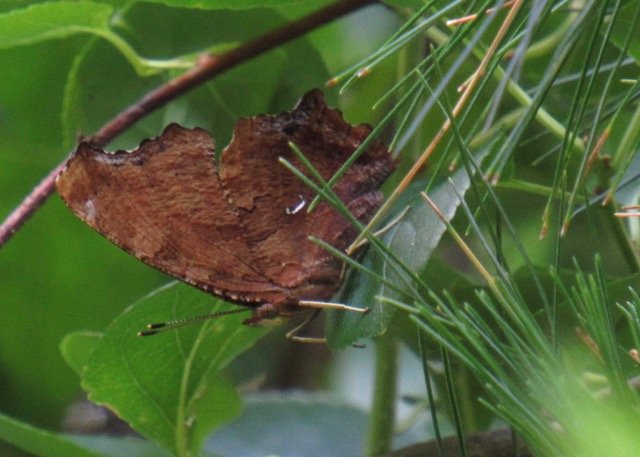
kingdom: Animalia
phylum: Arthropoda
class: Insecta
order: Lepidoptera
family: Nymphalidae
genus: Polygonia
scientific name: Polygonia comma
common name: Eastern Comma
